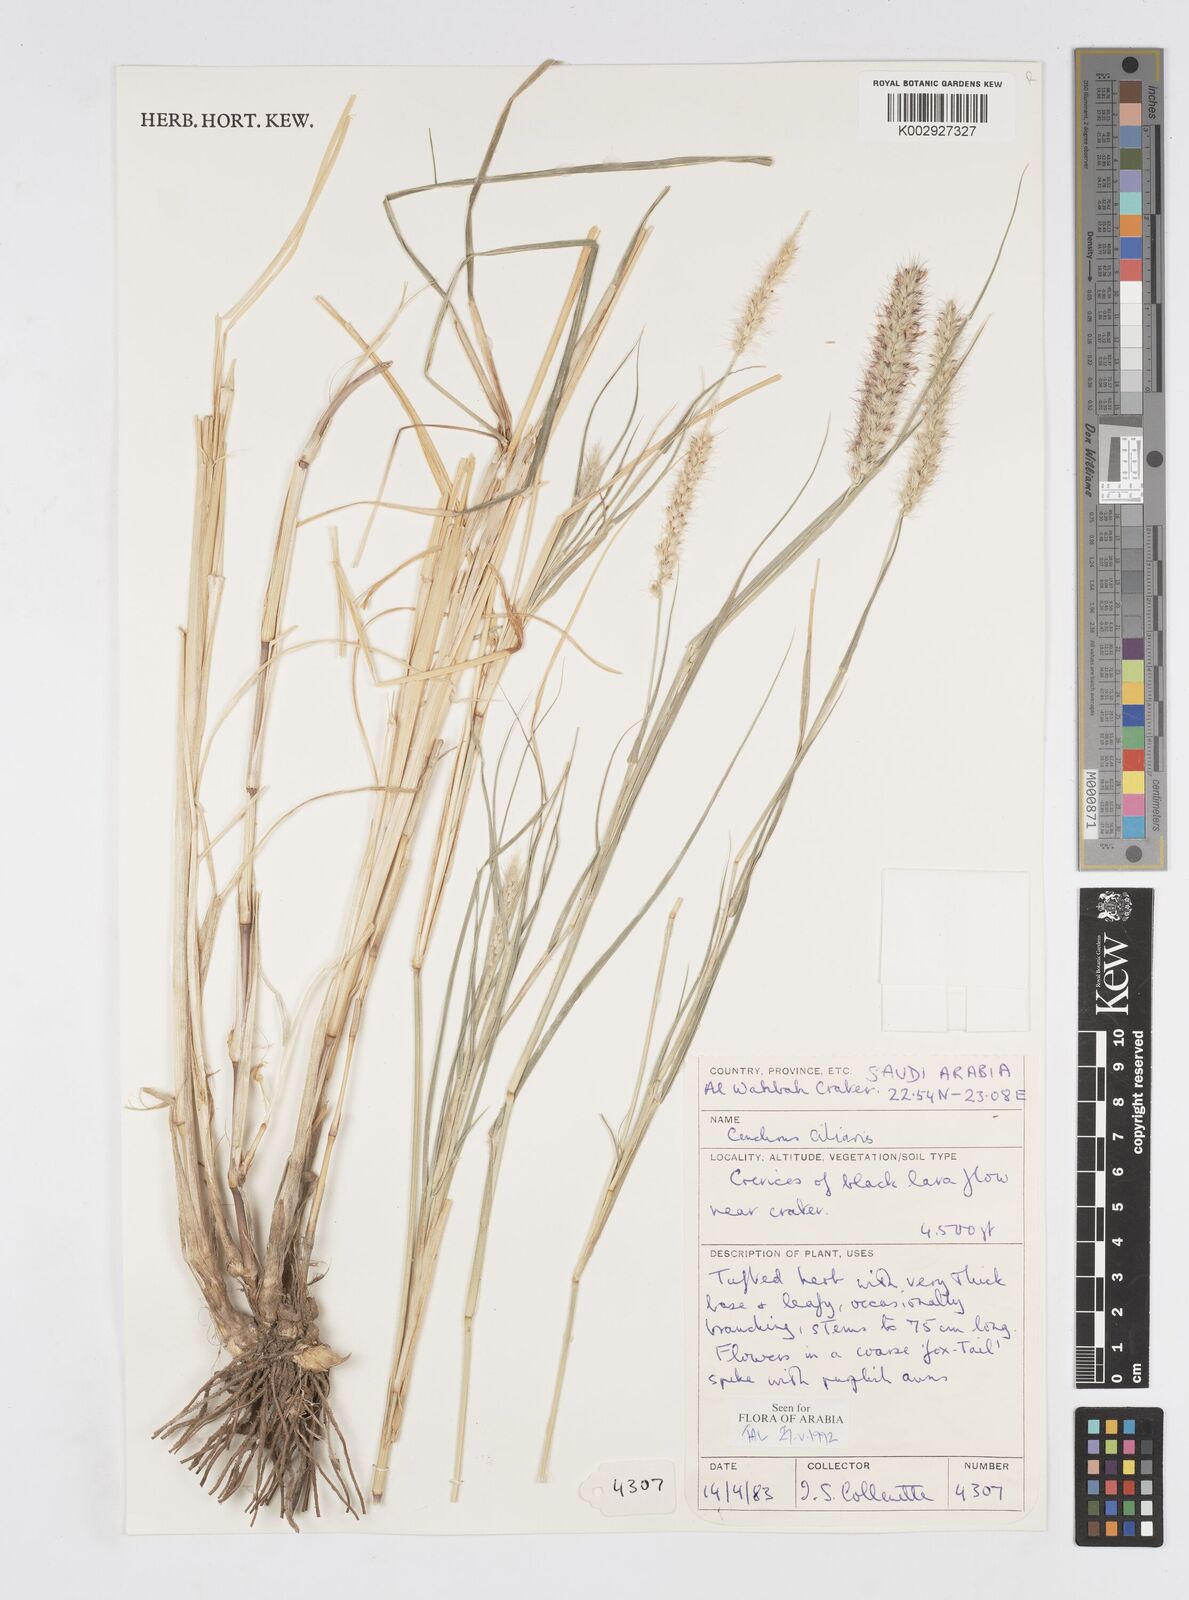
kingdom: Plantae
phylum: Tracheophyta
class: Liliopsida
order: Poales
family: Poaceae
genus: Cenchrus
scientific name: Cenchrus ciliaris
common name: Buffelgrass
